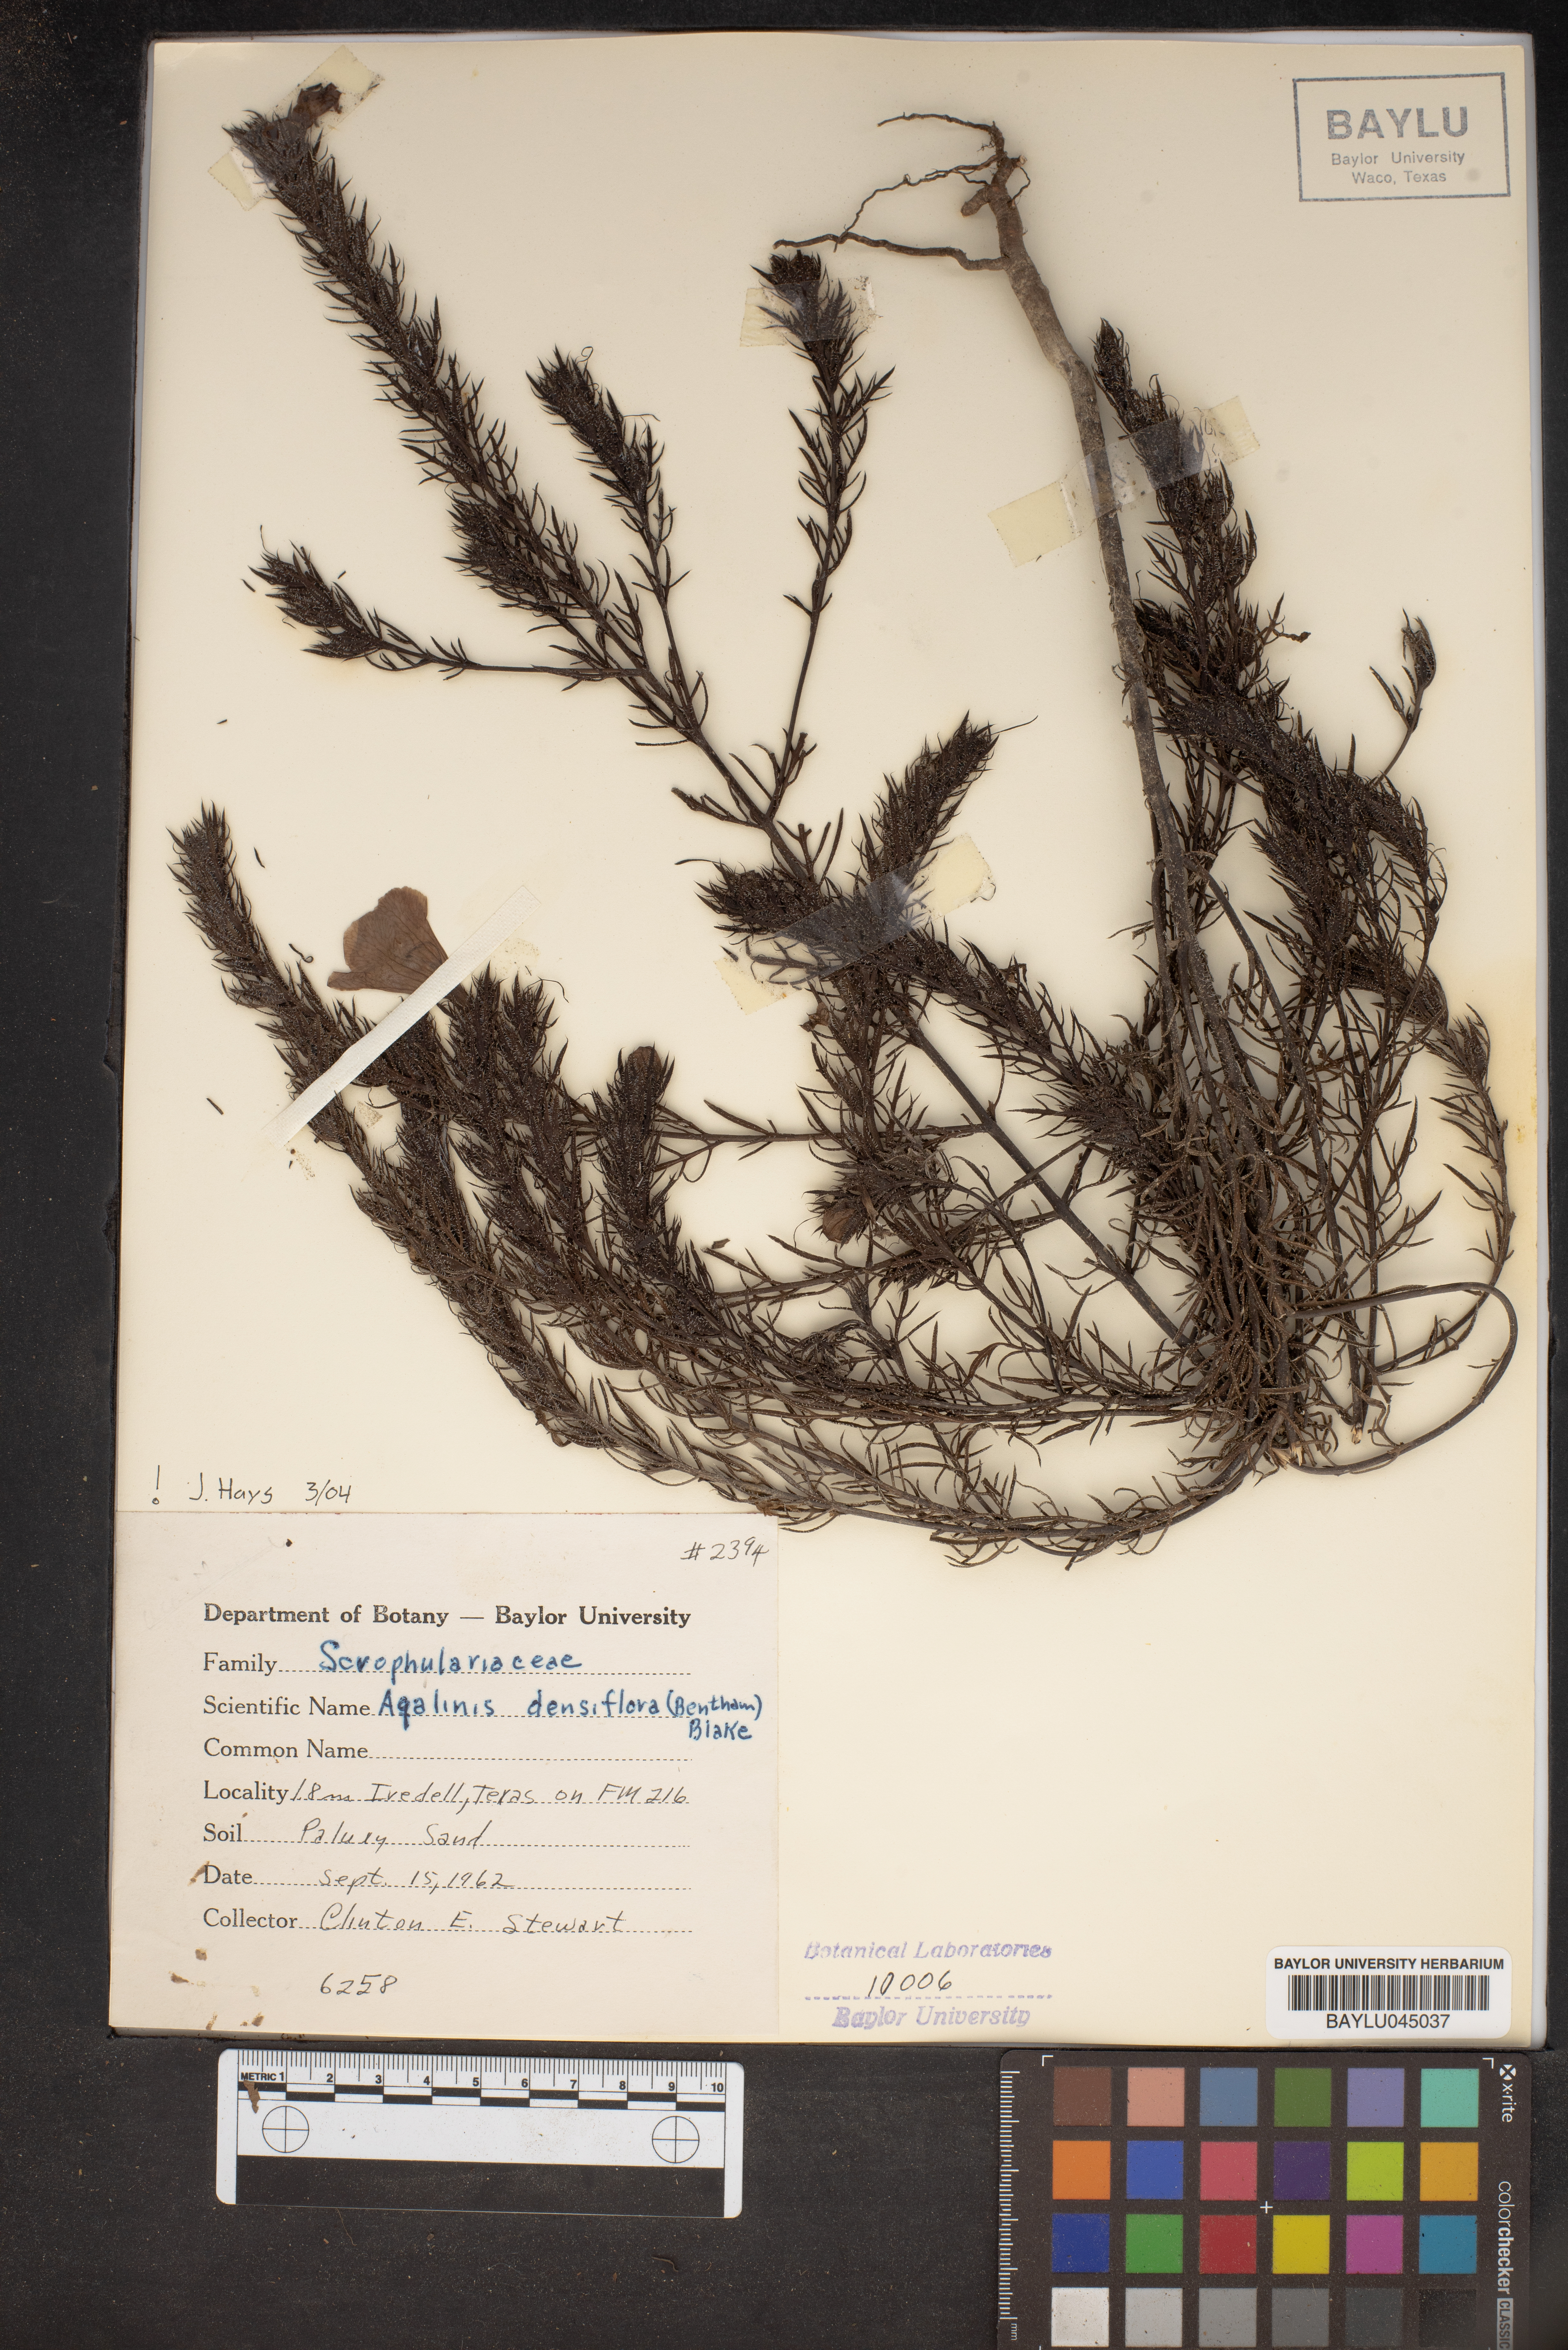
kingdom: Plantae
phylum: Tracheophyta
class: Magnoliopsida
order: Lamiales
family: Orobanchaceae
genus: Agalinis
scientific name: Agalinis densiflora
